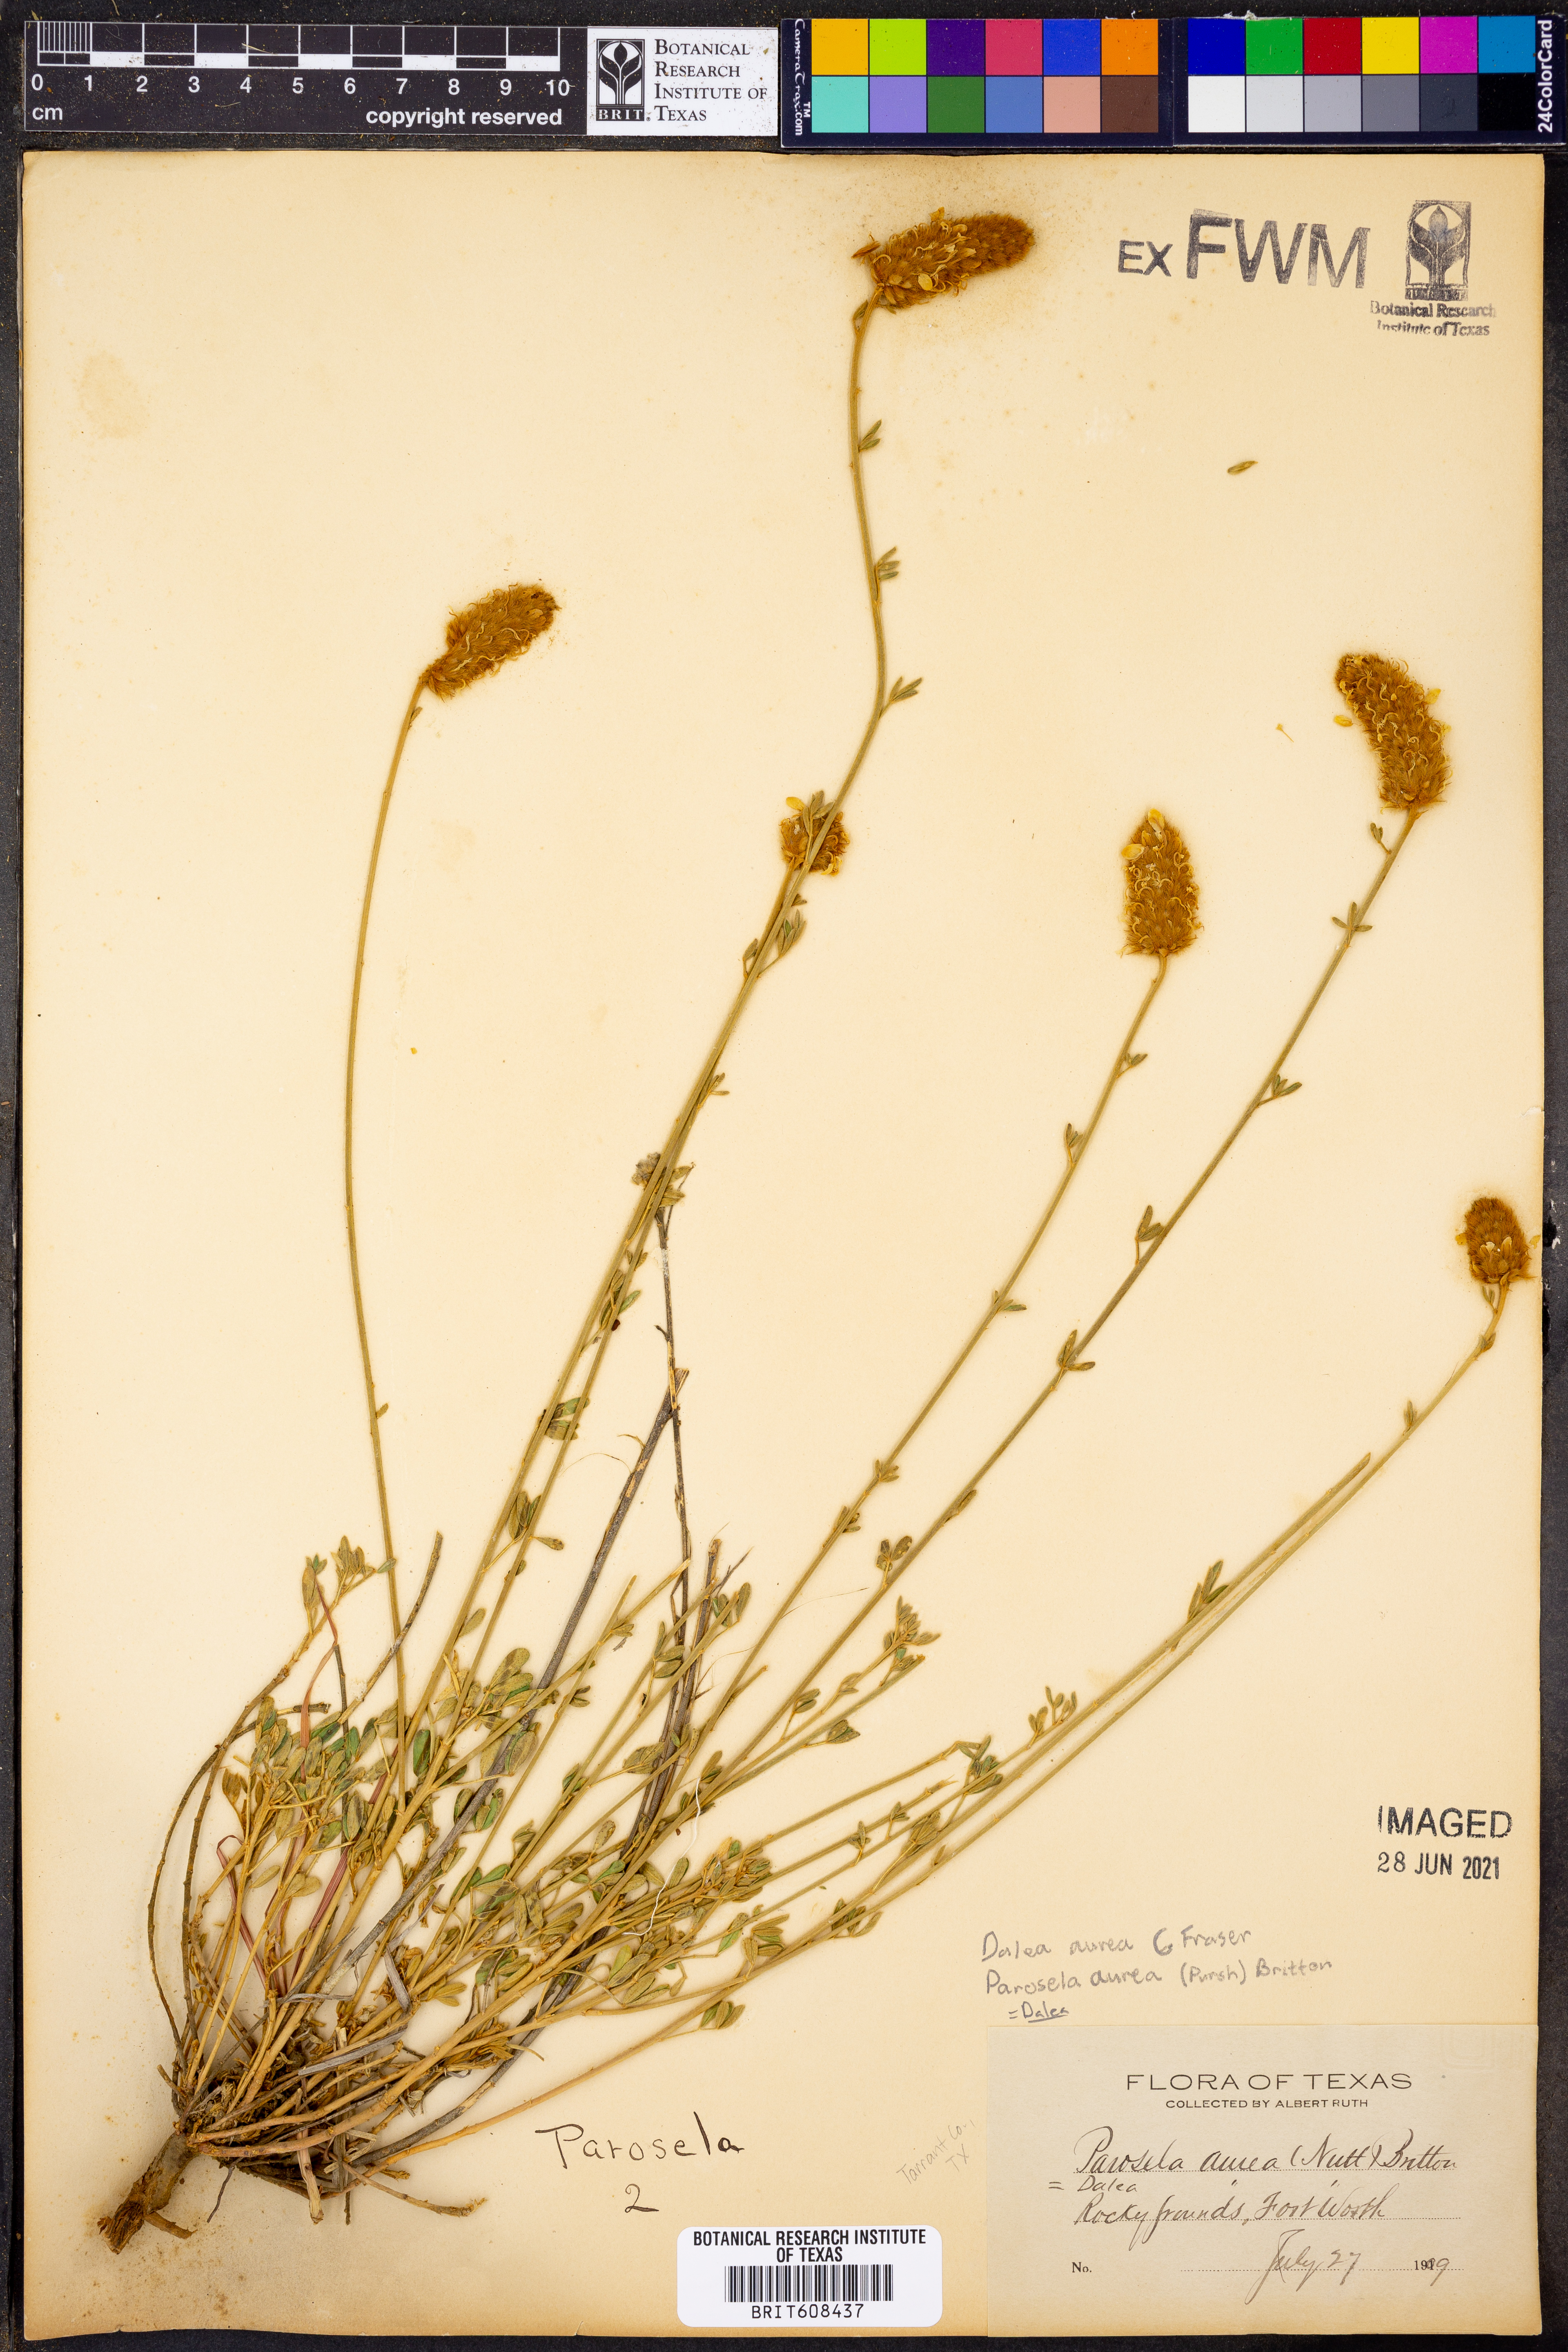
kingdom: Plantae
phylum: Tracheophyta
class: Magnoliopsida
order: Fabales
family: Fabaceae
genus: Dalea
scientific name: Dalea aurea
